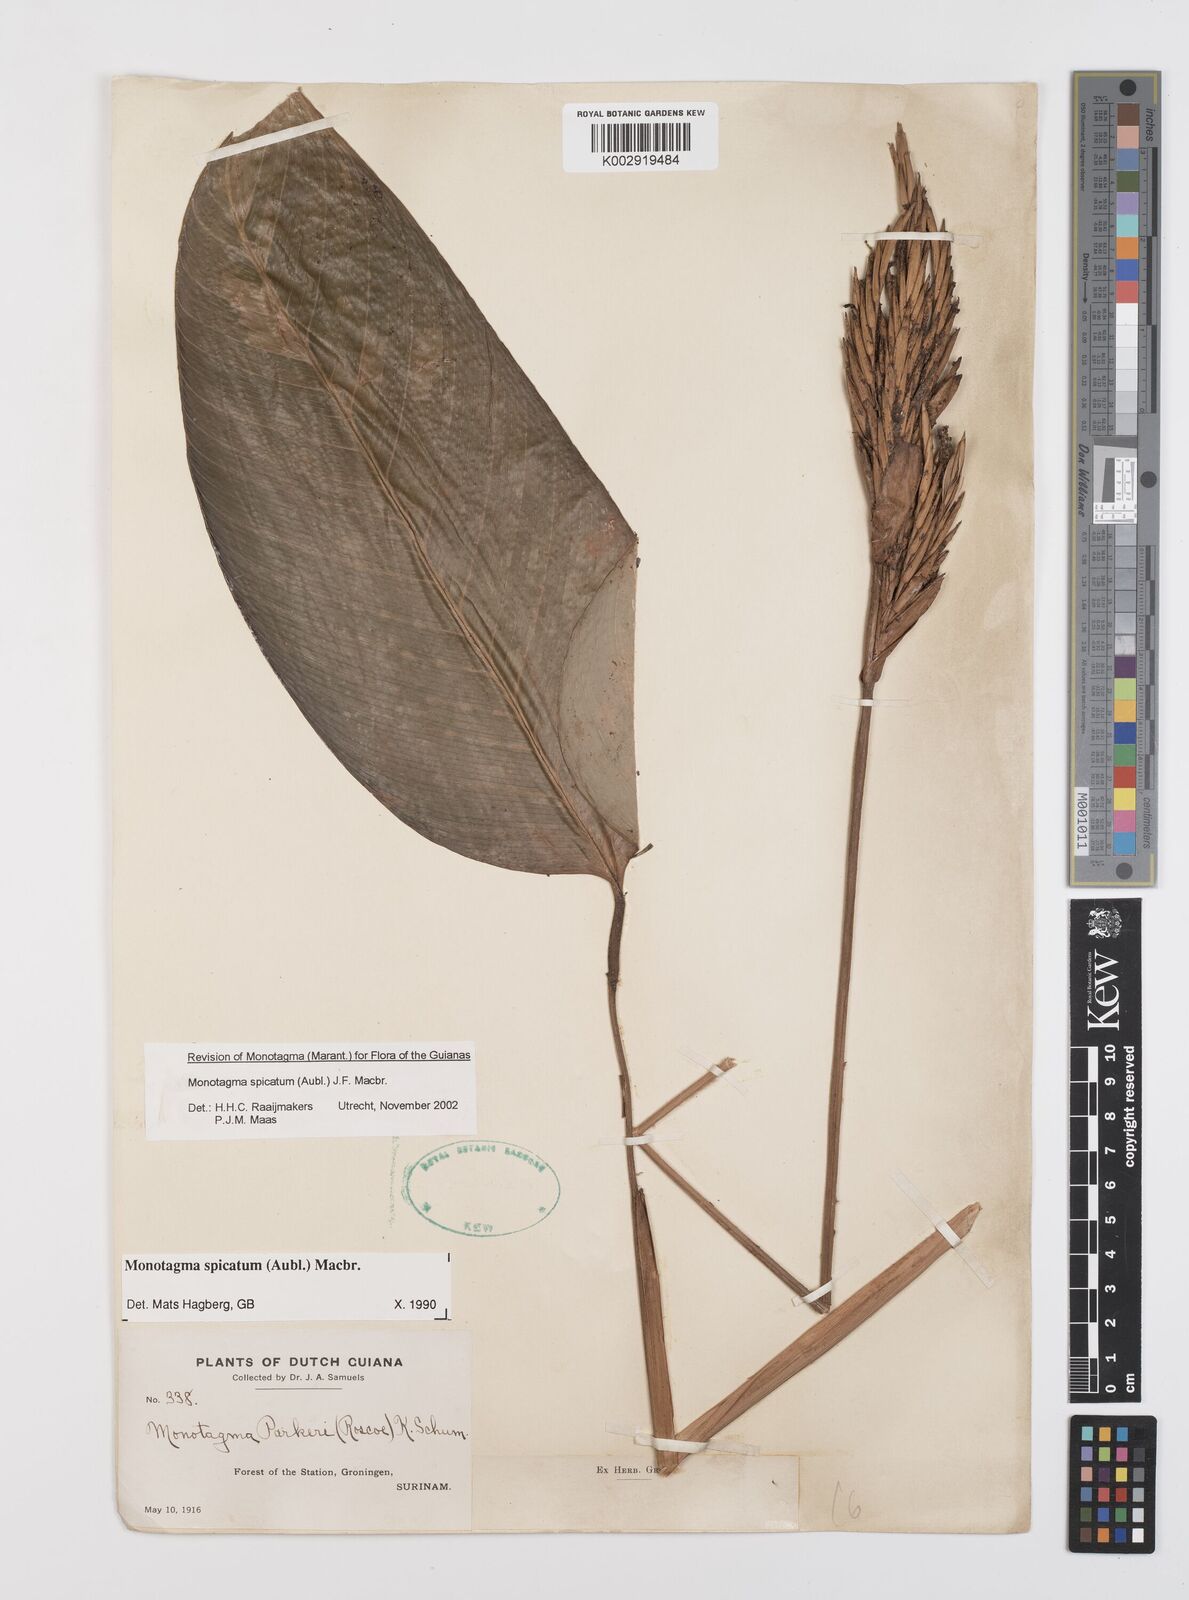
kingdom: Plantae
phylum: Tracheophyta
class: Liliopsida
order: Zingiberales
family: Marantaceae
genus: Monotagma
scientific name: Monotagma spicatum
